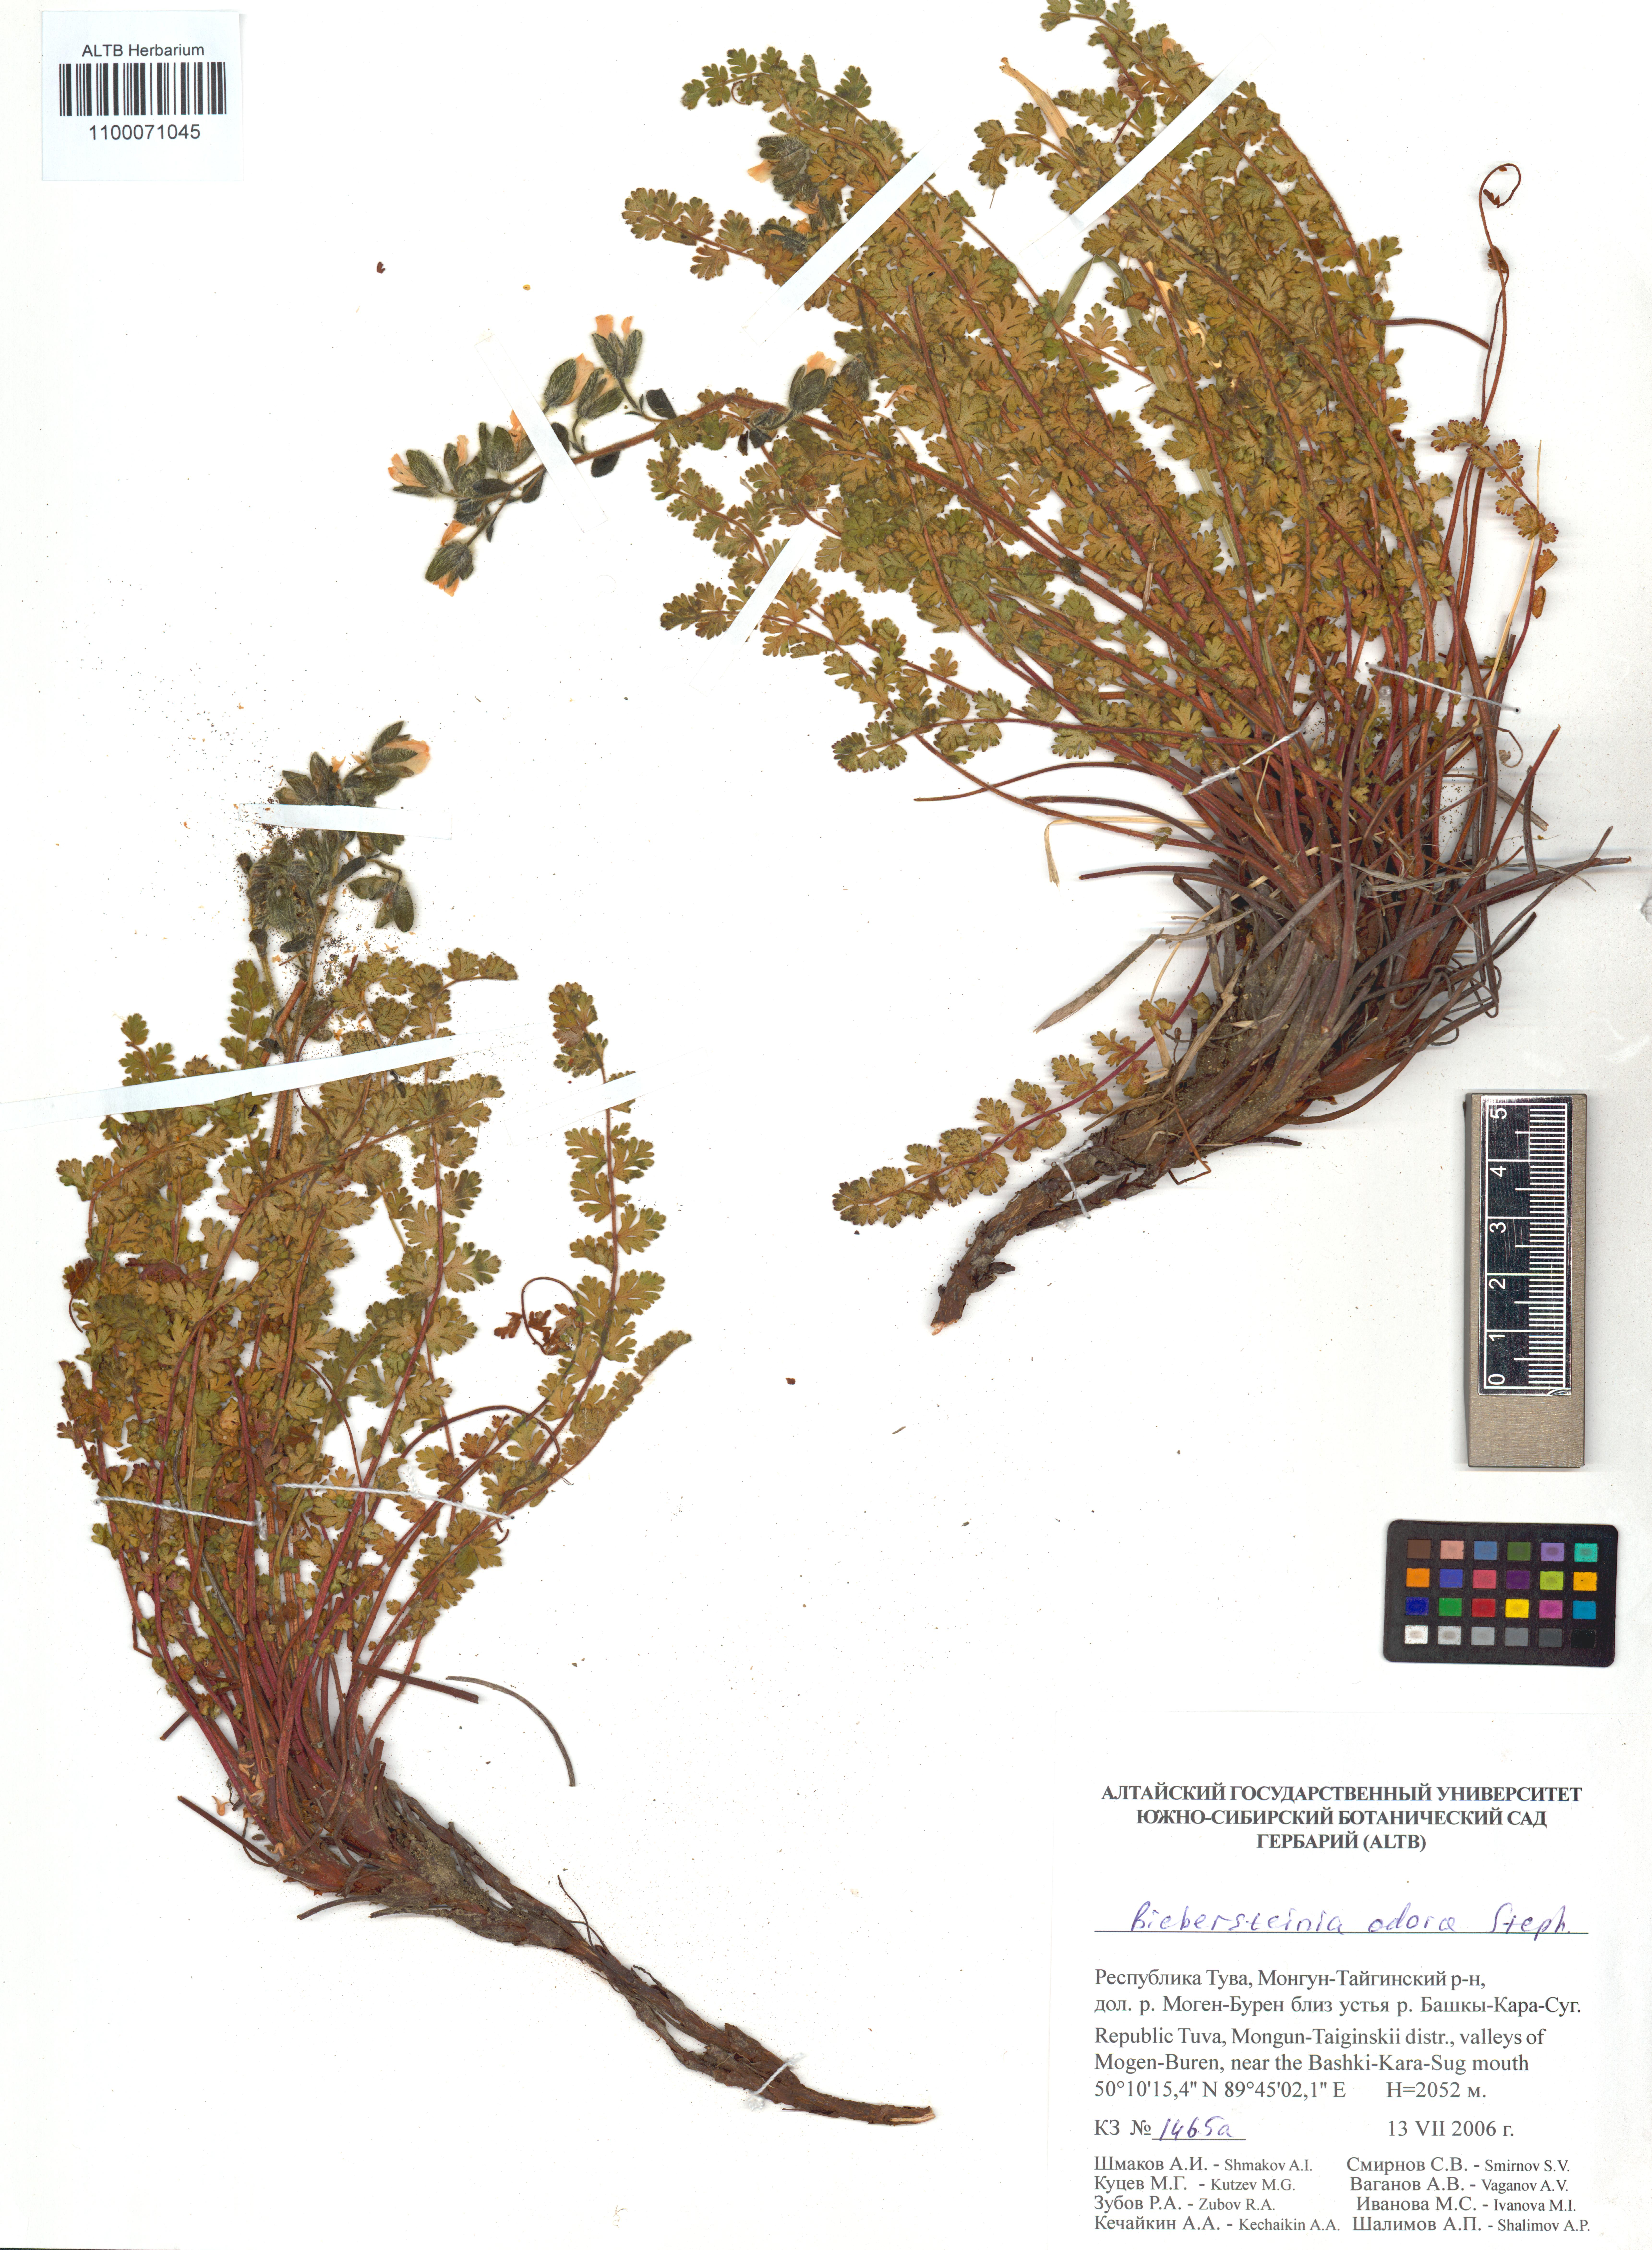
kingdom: Plantae
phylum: Tracheophyta
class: Magnoliopsida
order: Sapindales
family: Biebersteiniaceae
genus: Biebersteinia
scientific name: Biebersteinia odora
